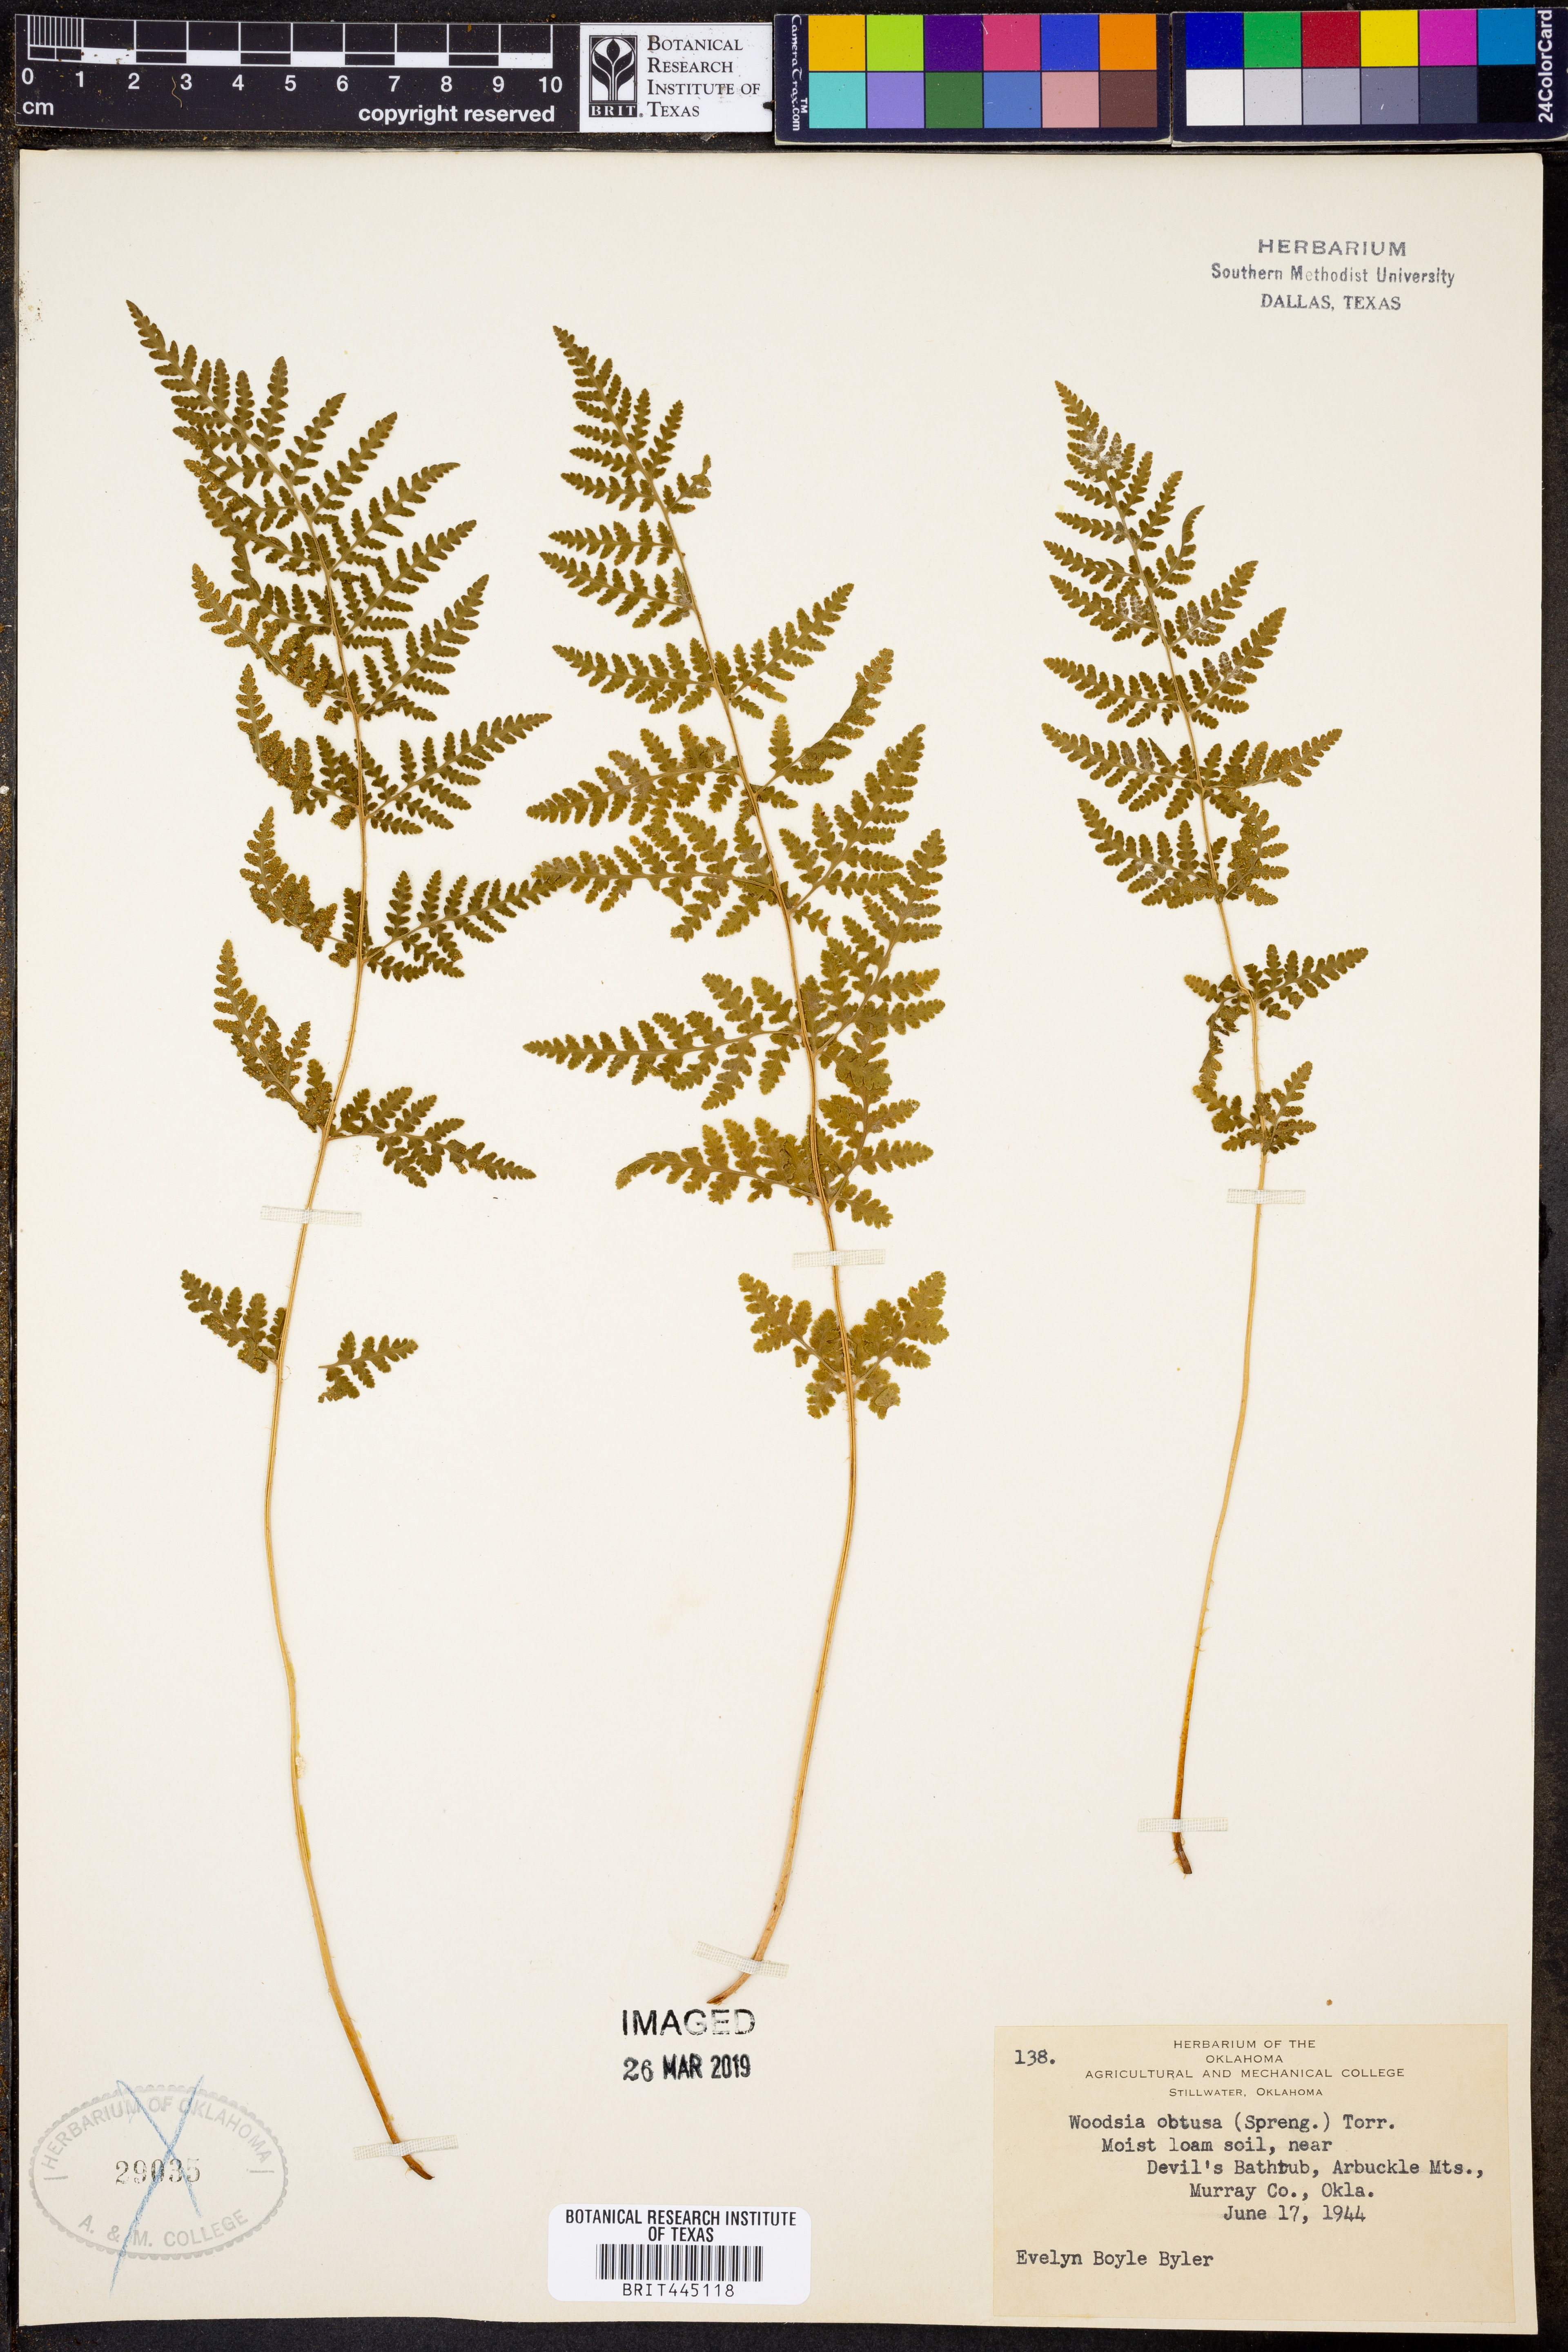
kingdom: Plantae
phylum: Tracheophyta
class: Polypodiopsida
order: Polypodiales
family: Woodsiaceae
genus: Physematium
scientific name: Physematium obtusum
